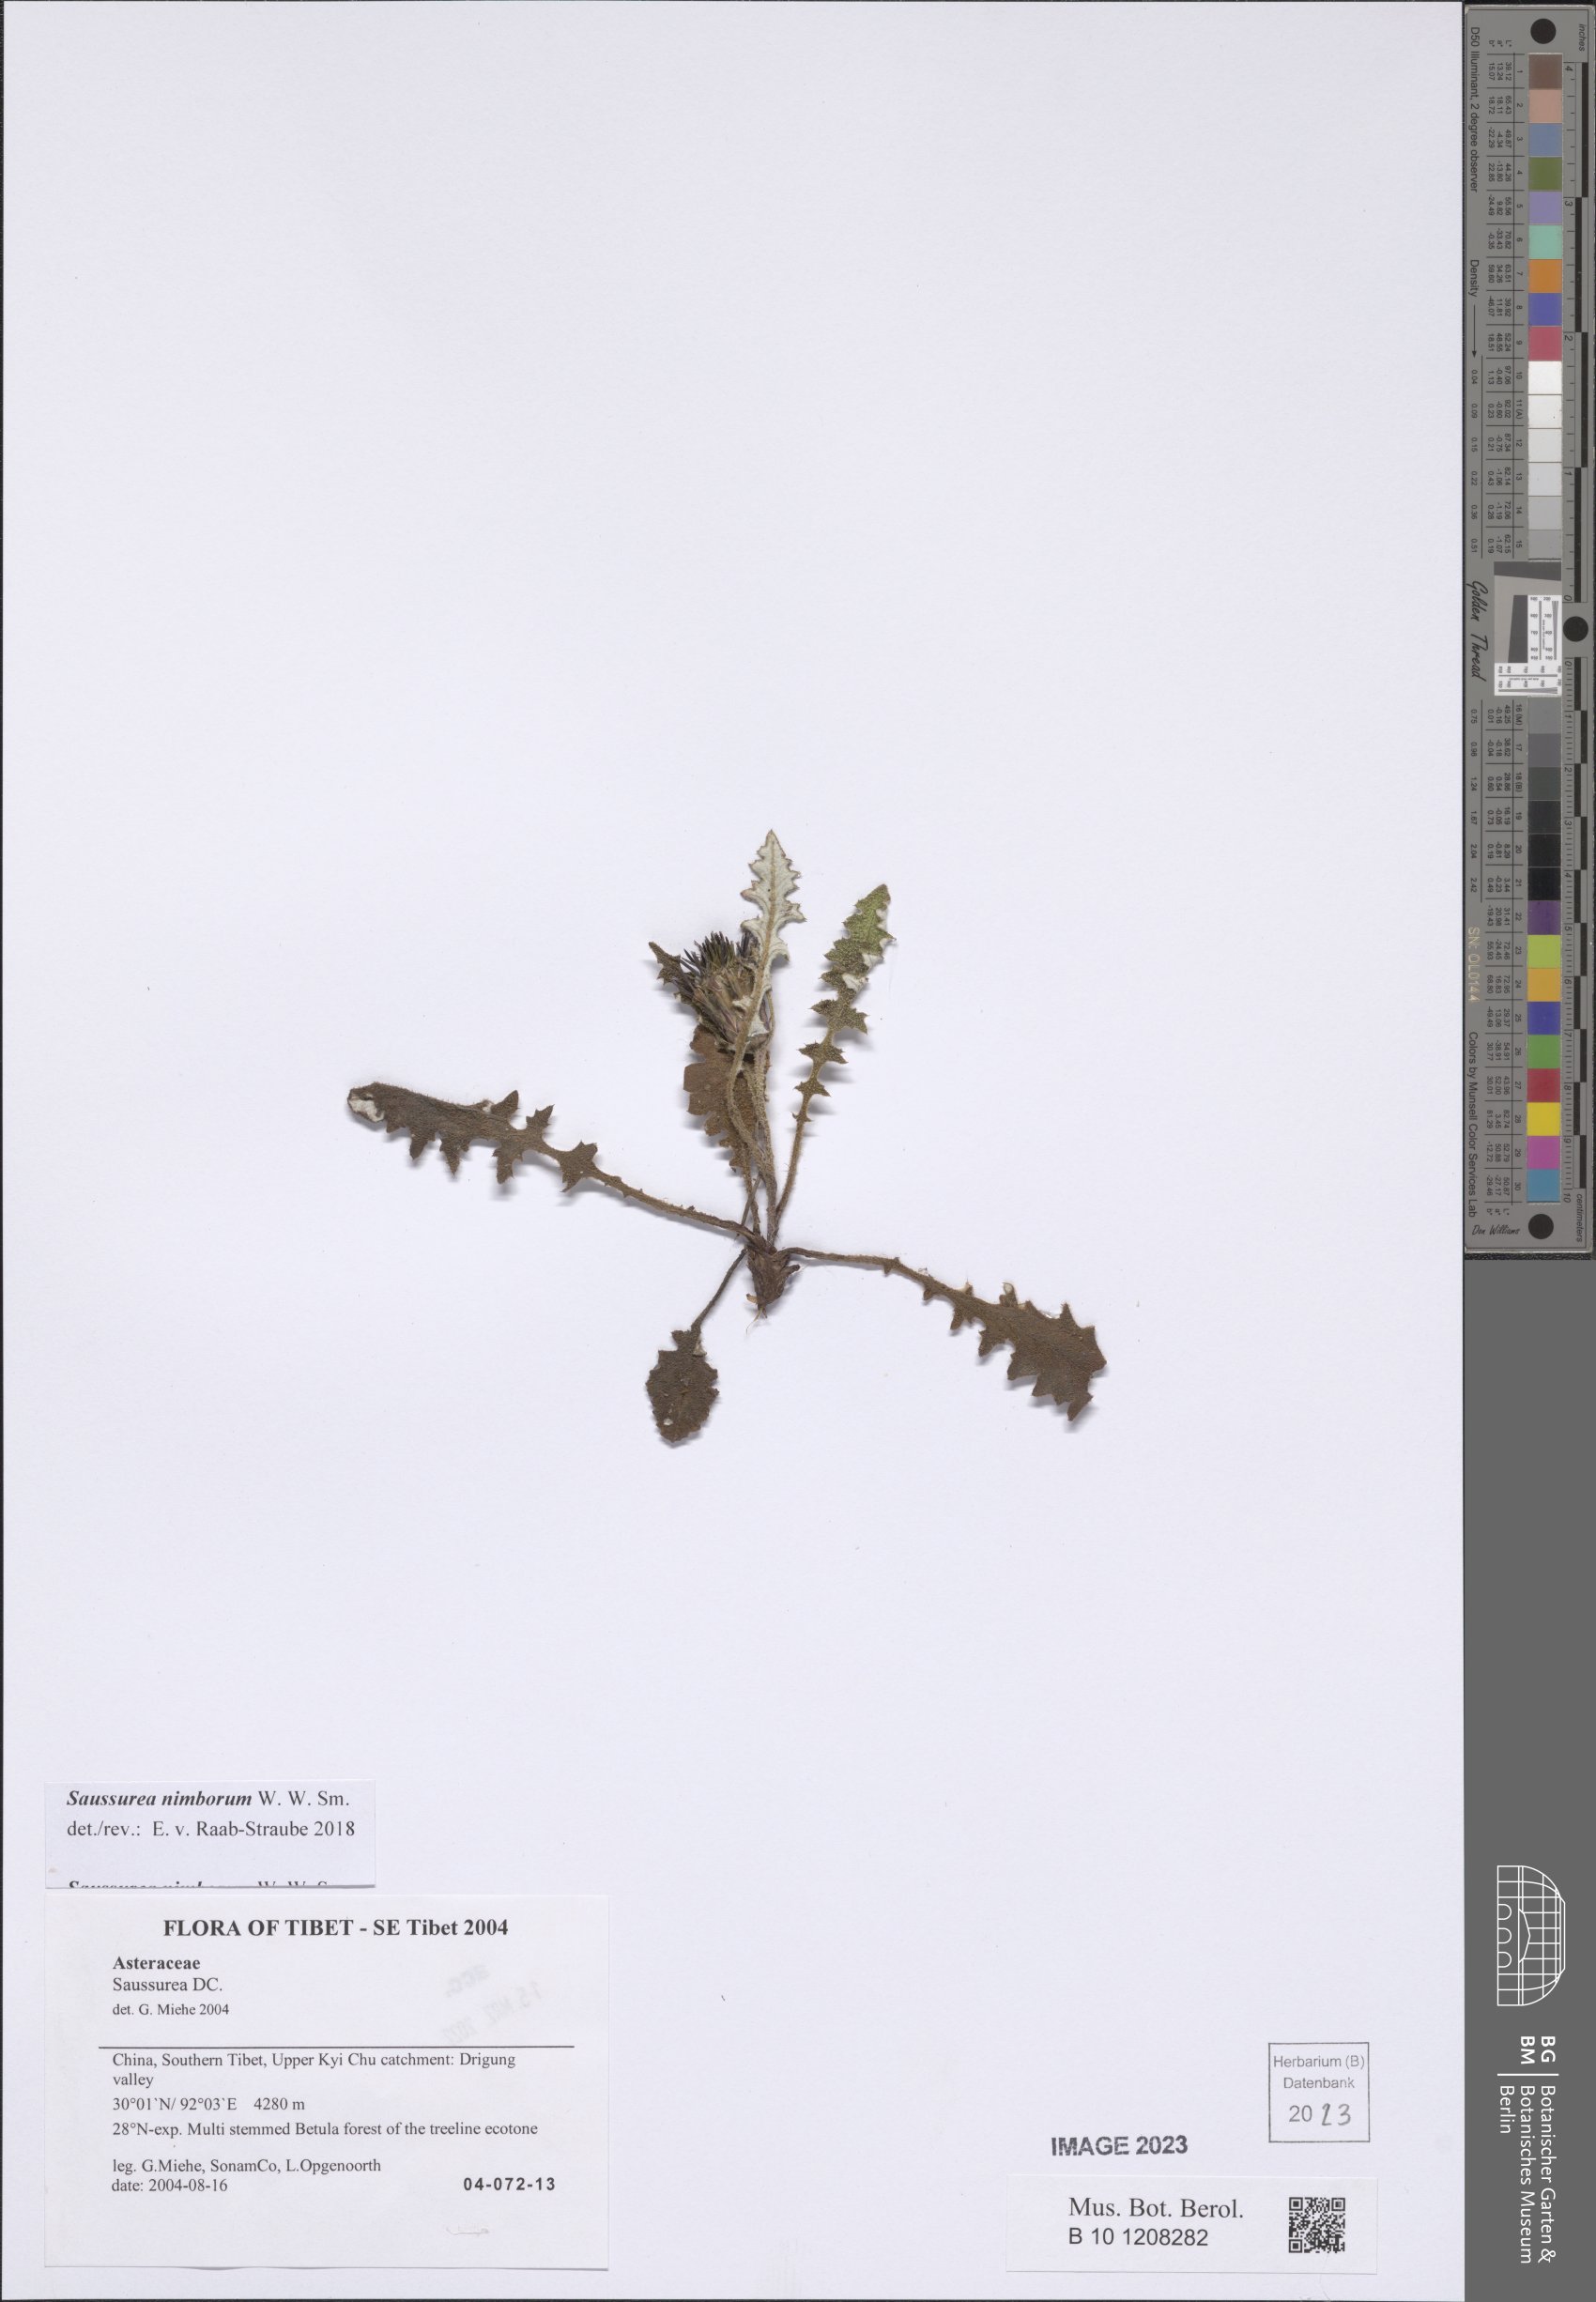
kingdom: Plantae
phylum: Tracheophyta
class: Magnoliopsida
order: Asterales
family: Asteraceae
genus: Saussurea
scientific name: Saussurea nimborum
